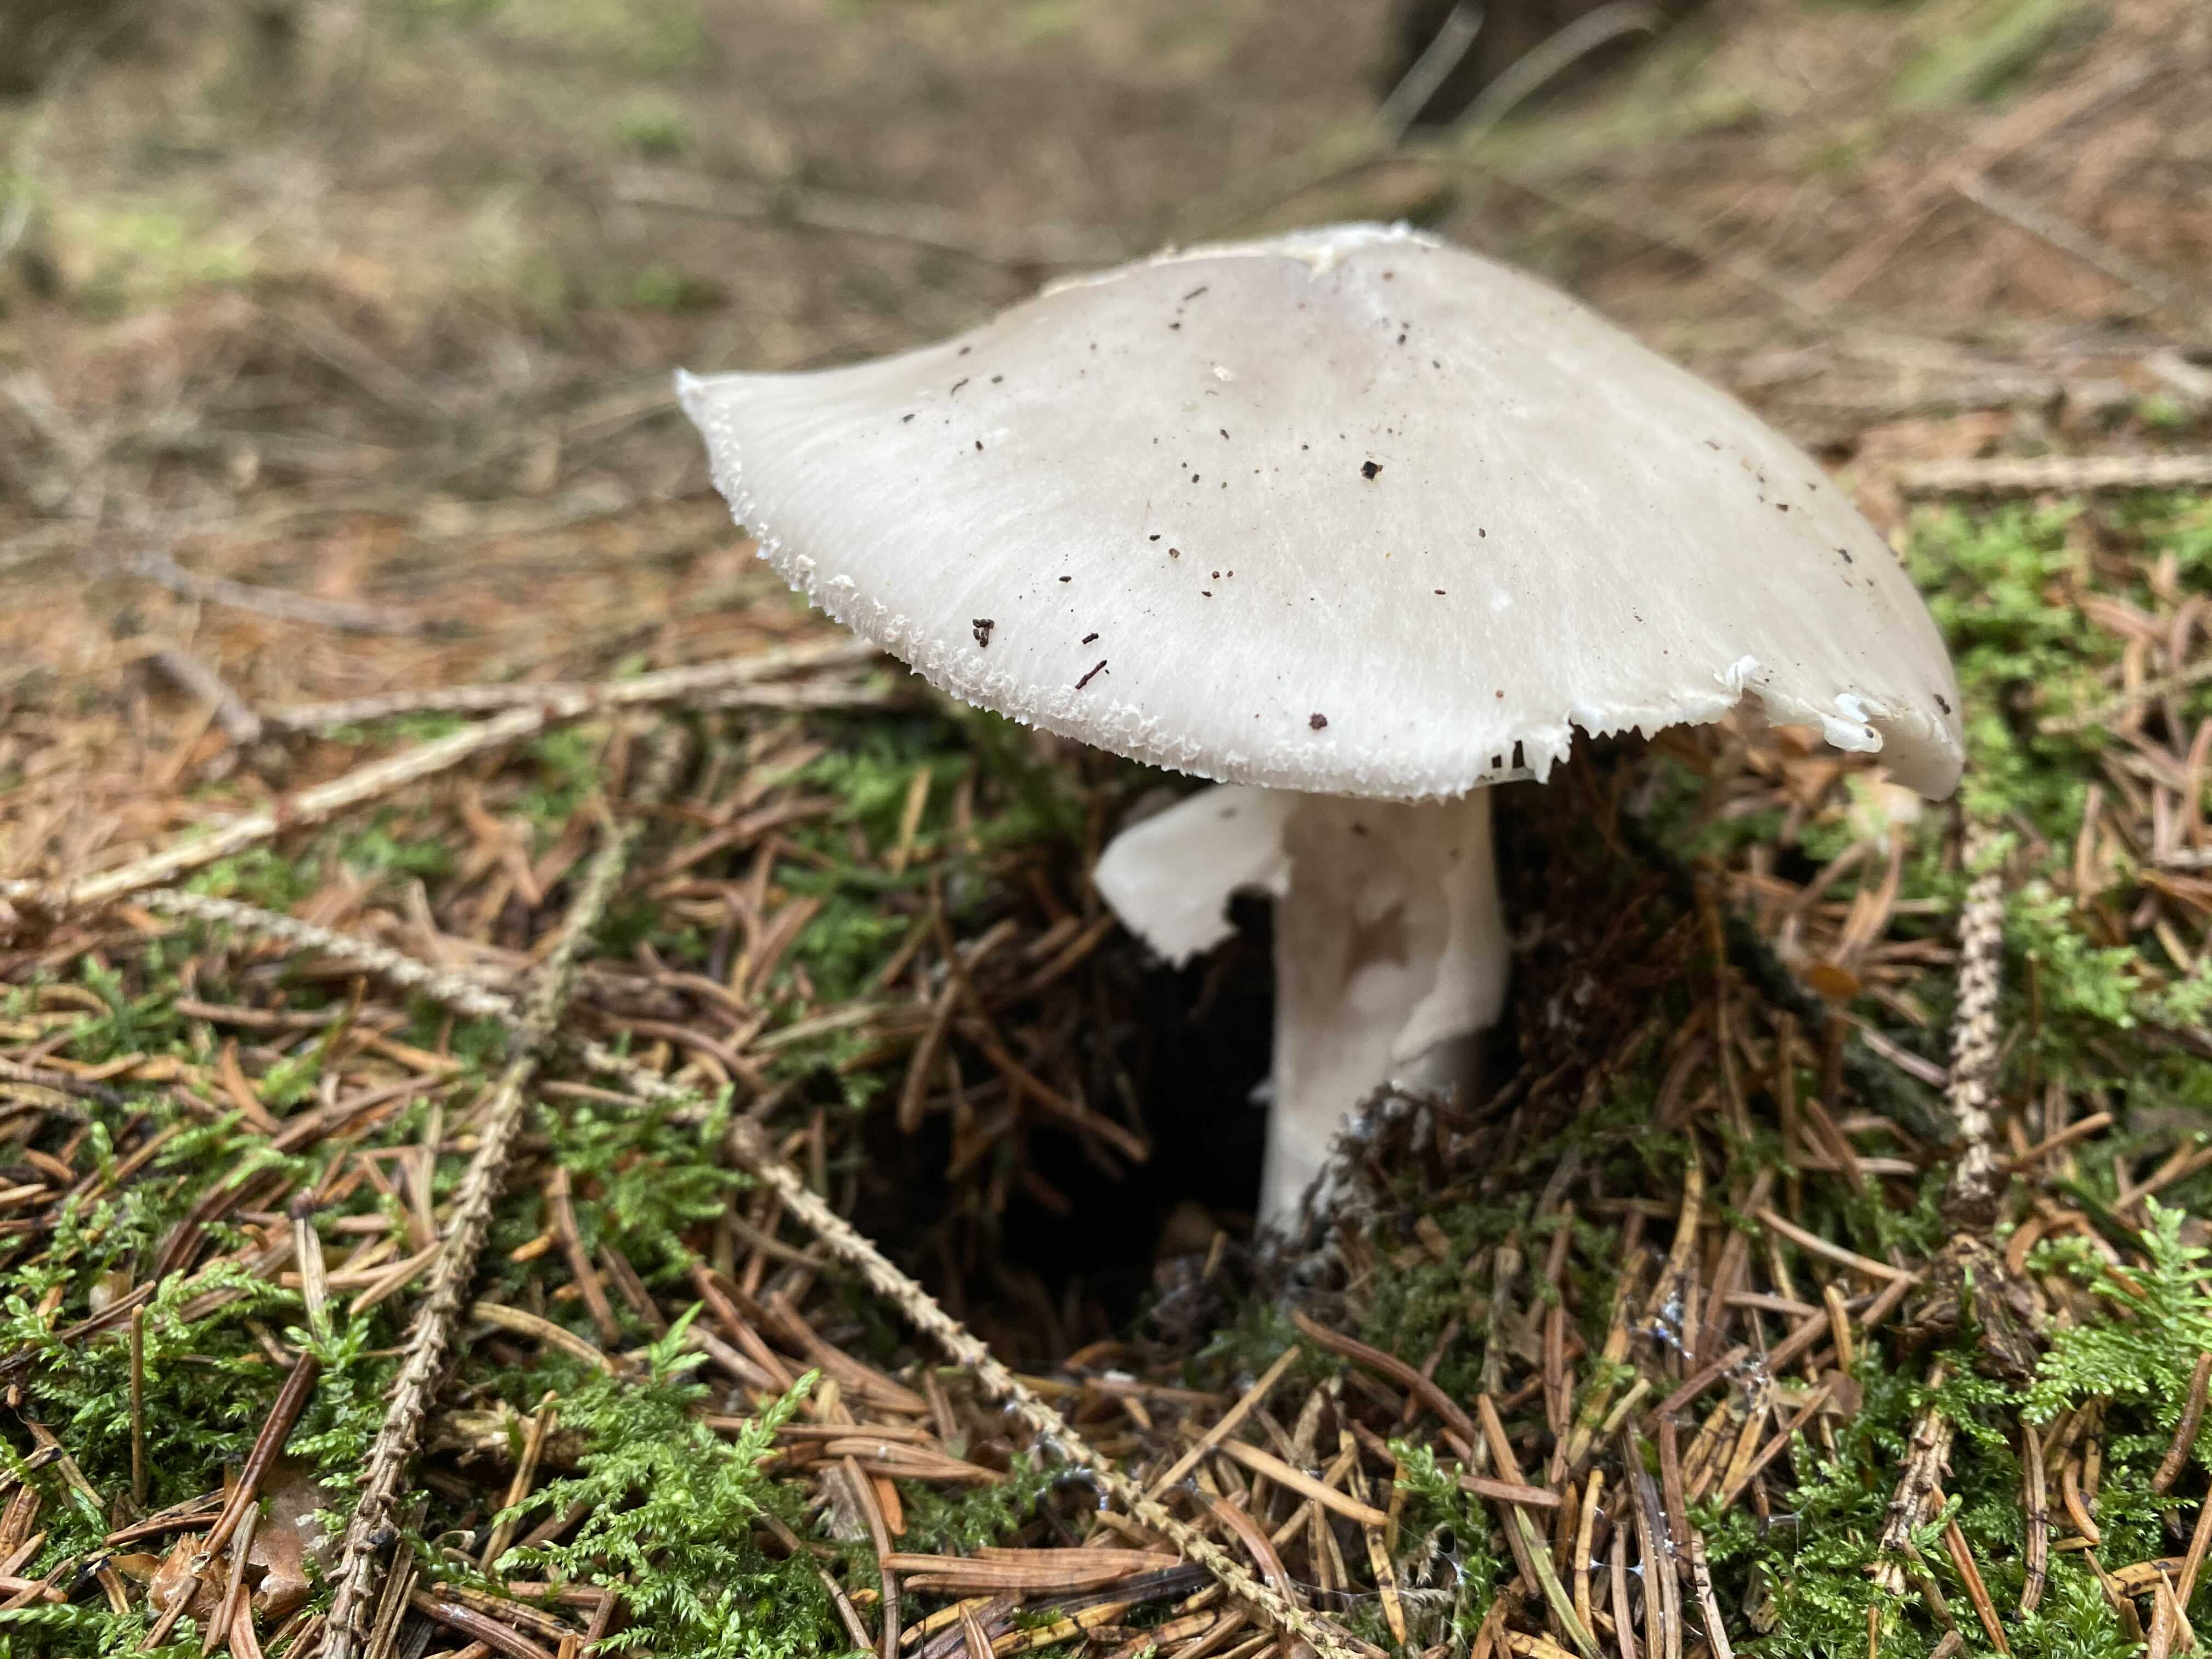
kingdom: Fungi
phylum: Basidiomycota
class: Agaricomycetes
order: Agaricales
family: Amanitaceae
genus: Amanita
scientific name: Amanita
